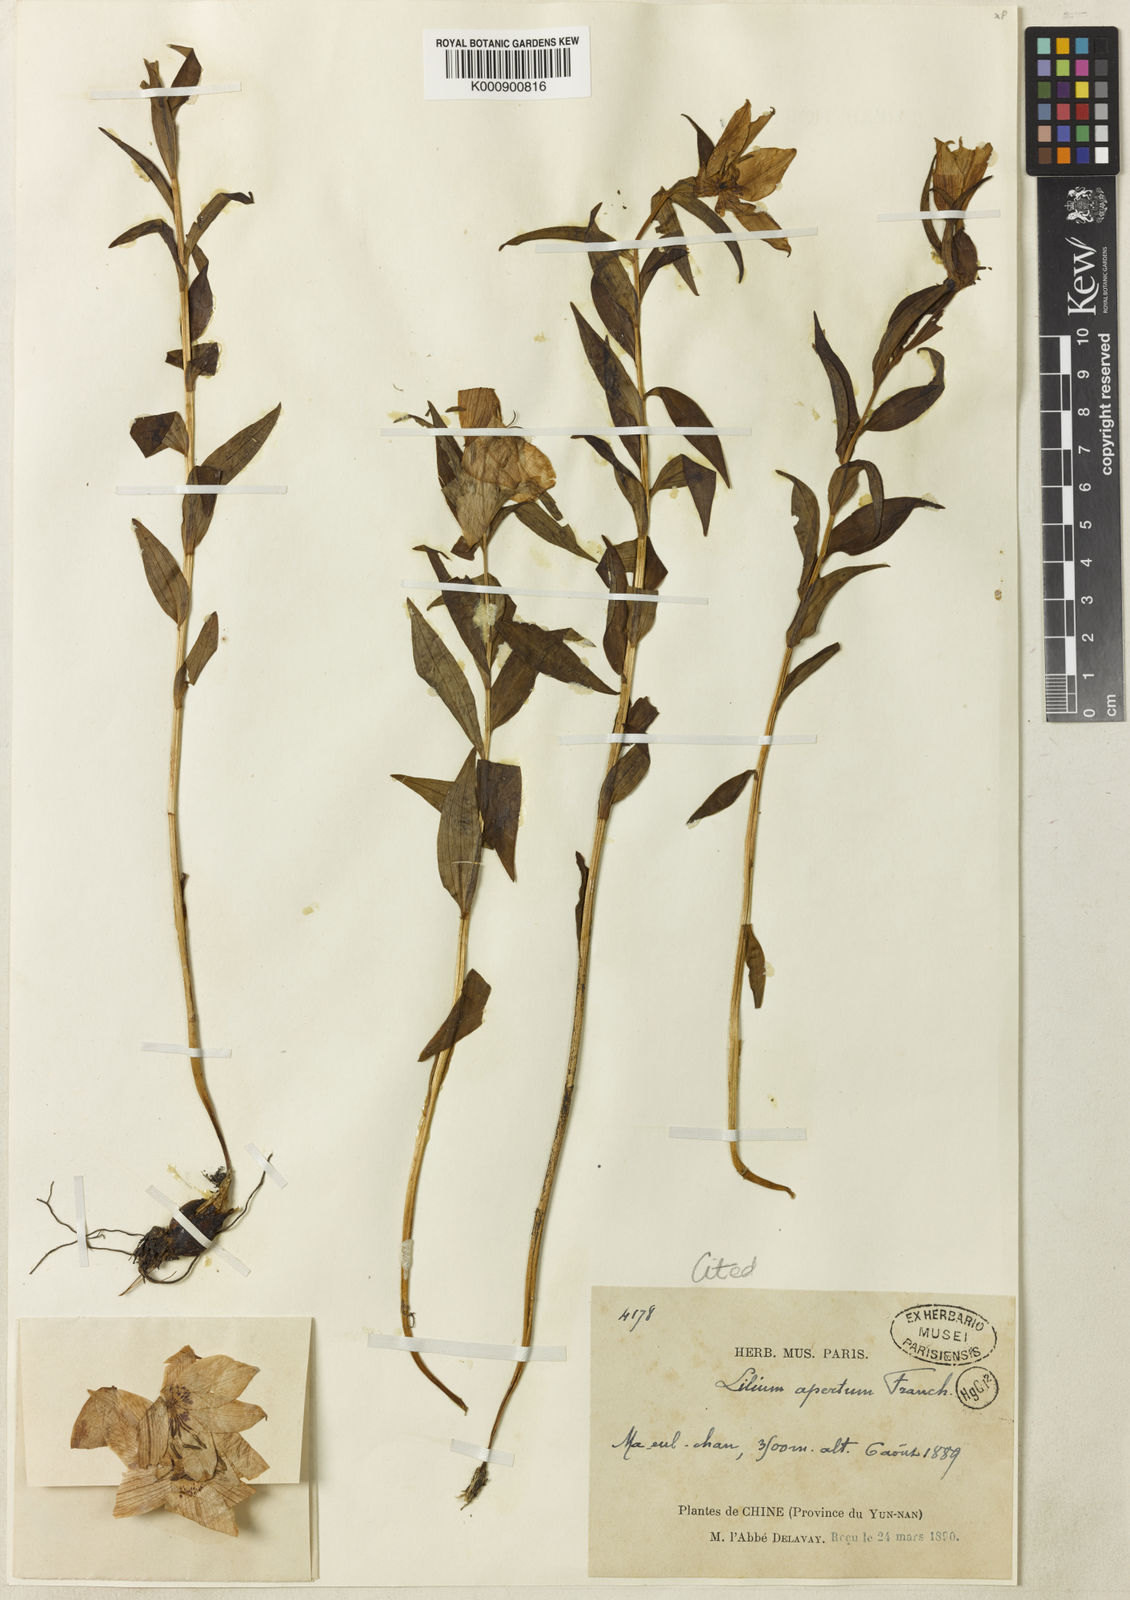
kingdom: Plantae
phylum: Tracheophyta
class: Liliopsida
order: Liliales
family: Liliaceae
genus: Lilium
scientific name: Lilium apertum
